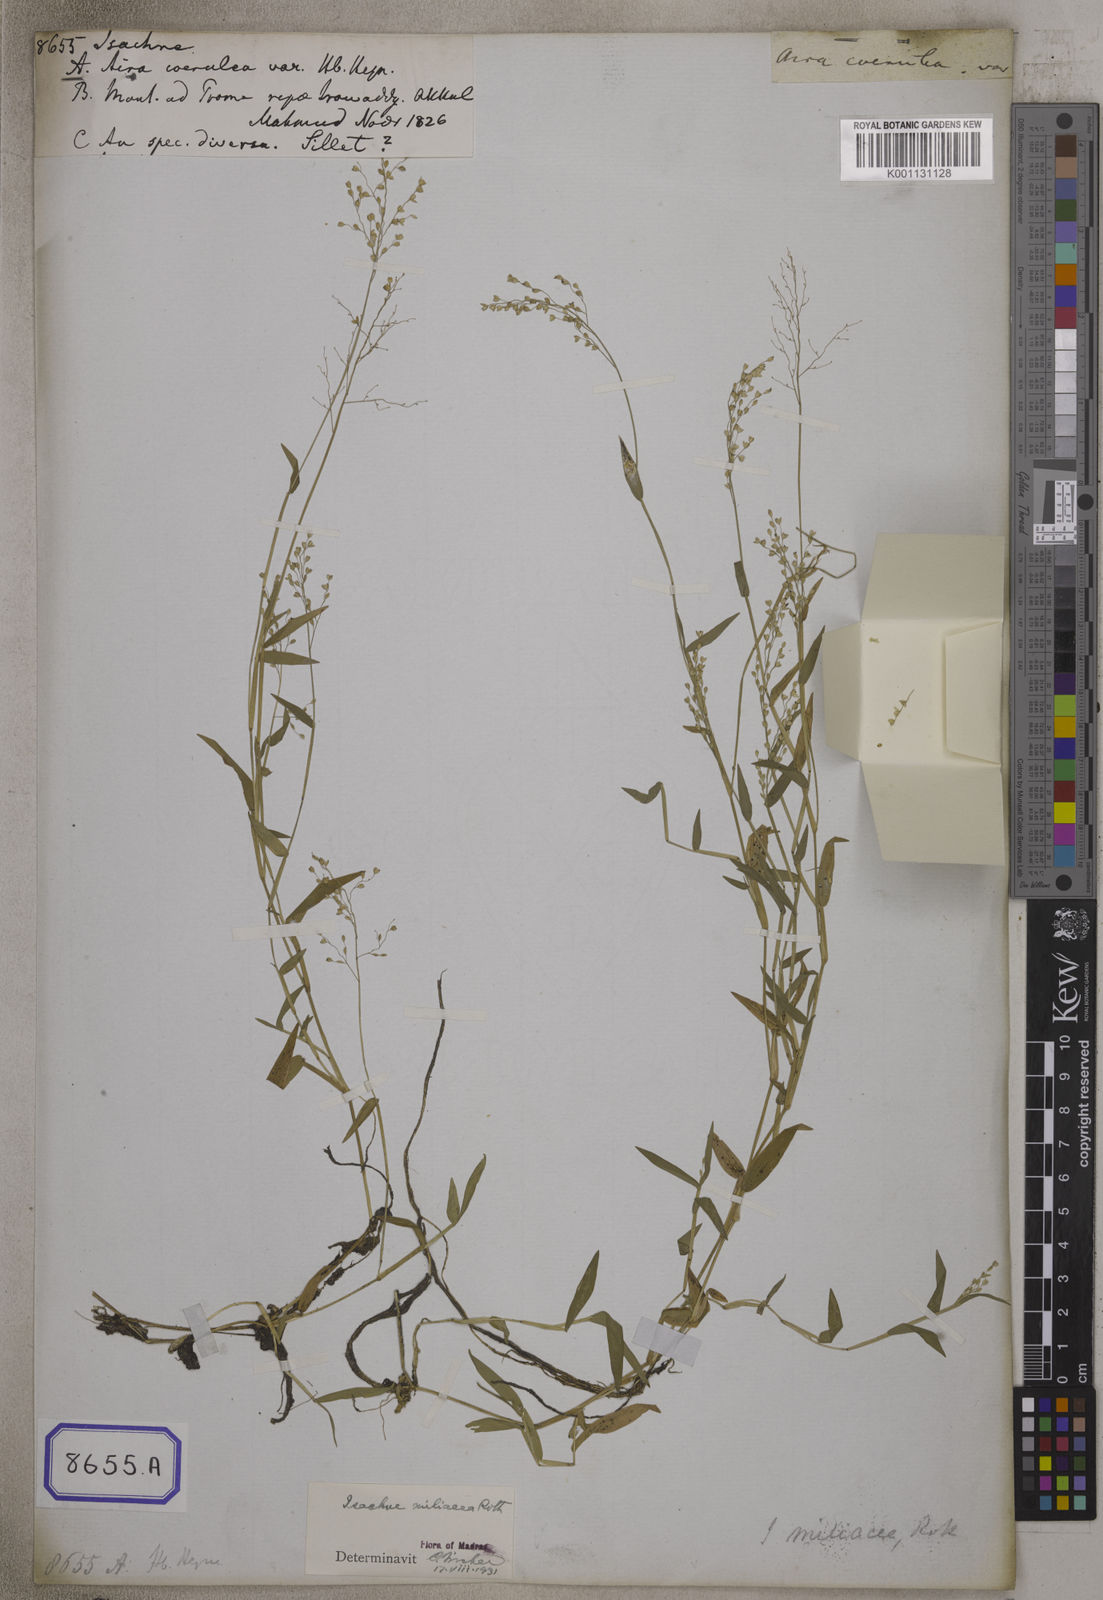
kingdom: Plantae
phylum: Tracheophyta
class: Liliopsida
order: Poales
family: Poaceae
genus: Isachne
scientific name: Isachne
